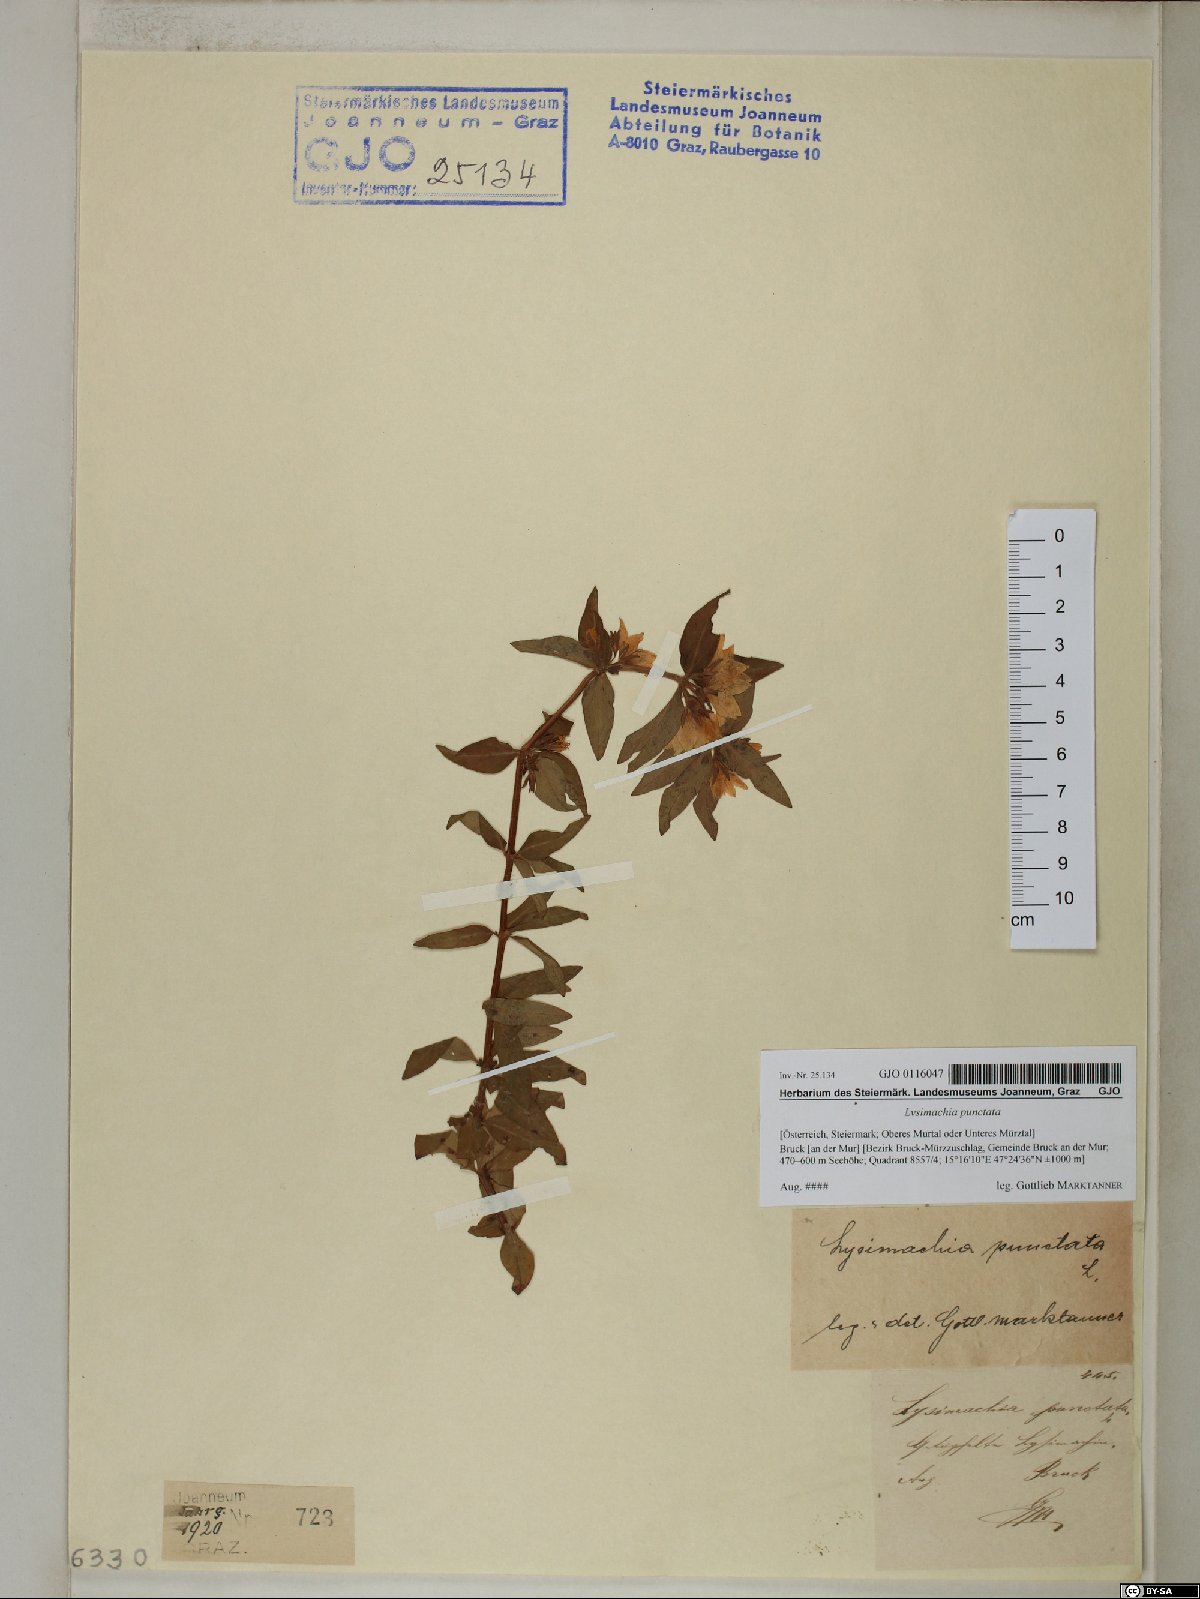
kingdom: Plantae
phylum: Tracheophyta
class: Magnoliopsida
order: Ericales
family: Primulaceae
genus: Lysimachia
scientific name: Lysimachia punctata
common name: Dotted loosestrife
